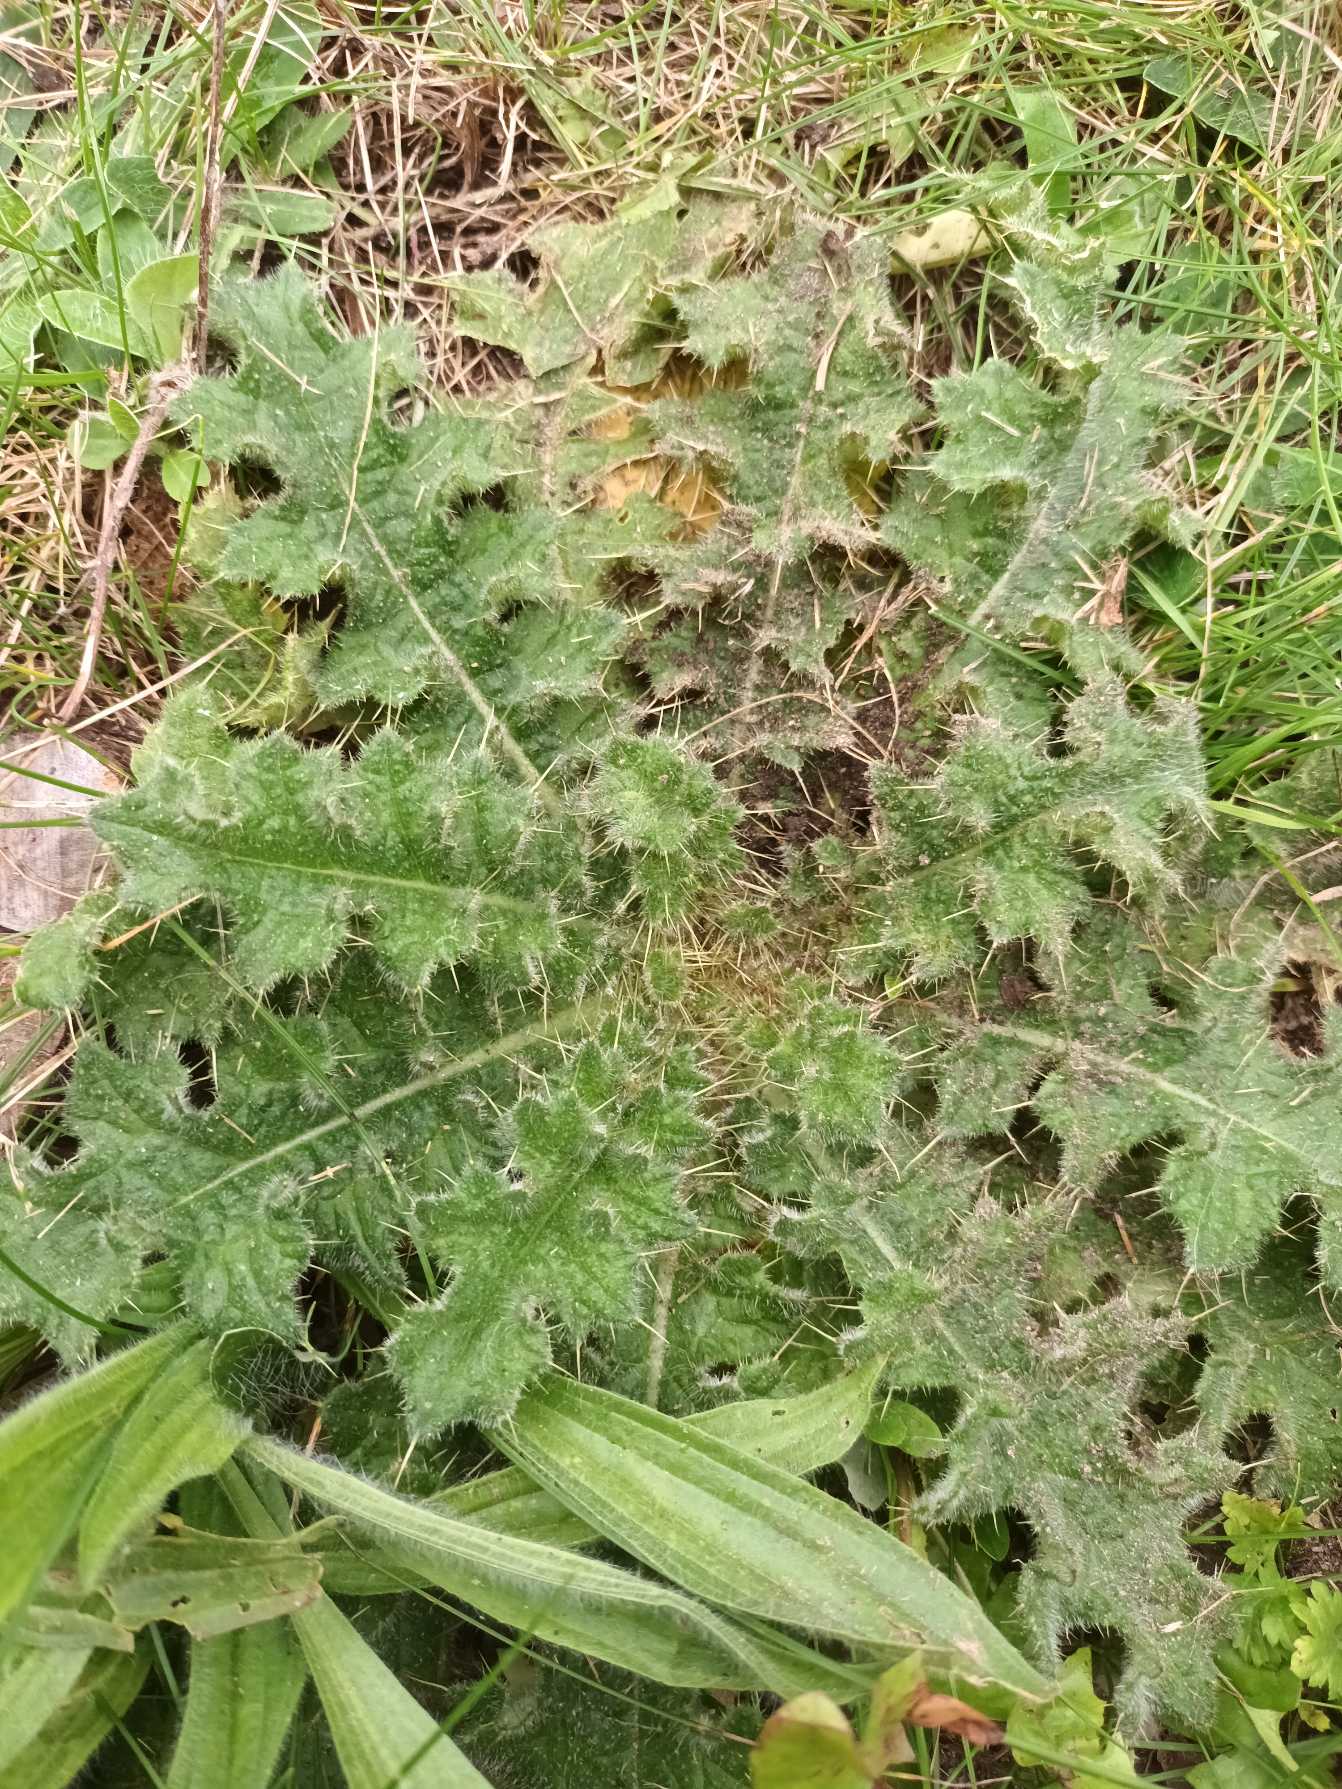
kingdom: Plantae
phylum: Tracheophyta
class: Magnoliopsida
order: Asterales
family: Asteraceae
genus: Cirsium
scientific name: Cirsium vulgare
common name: Horse-tidsel
